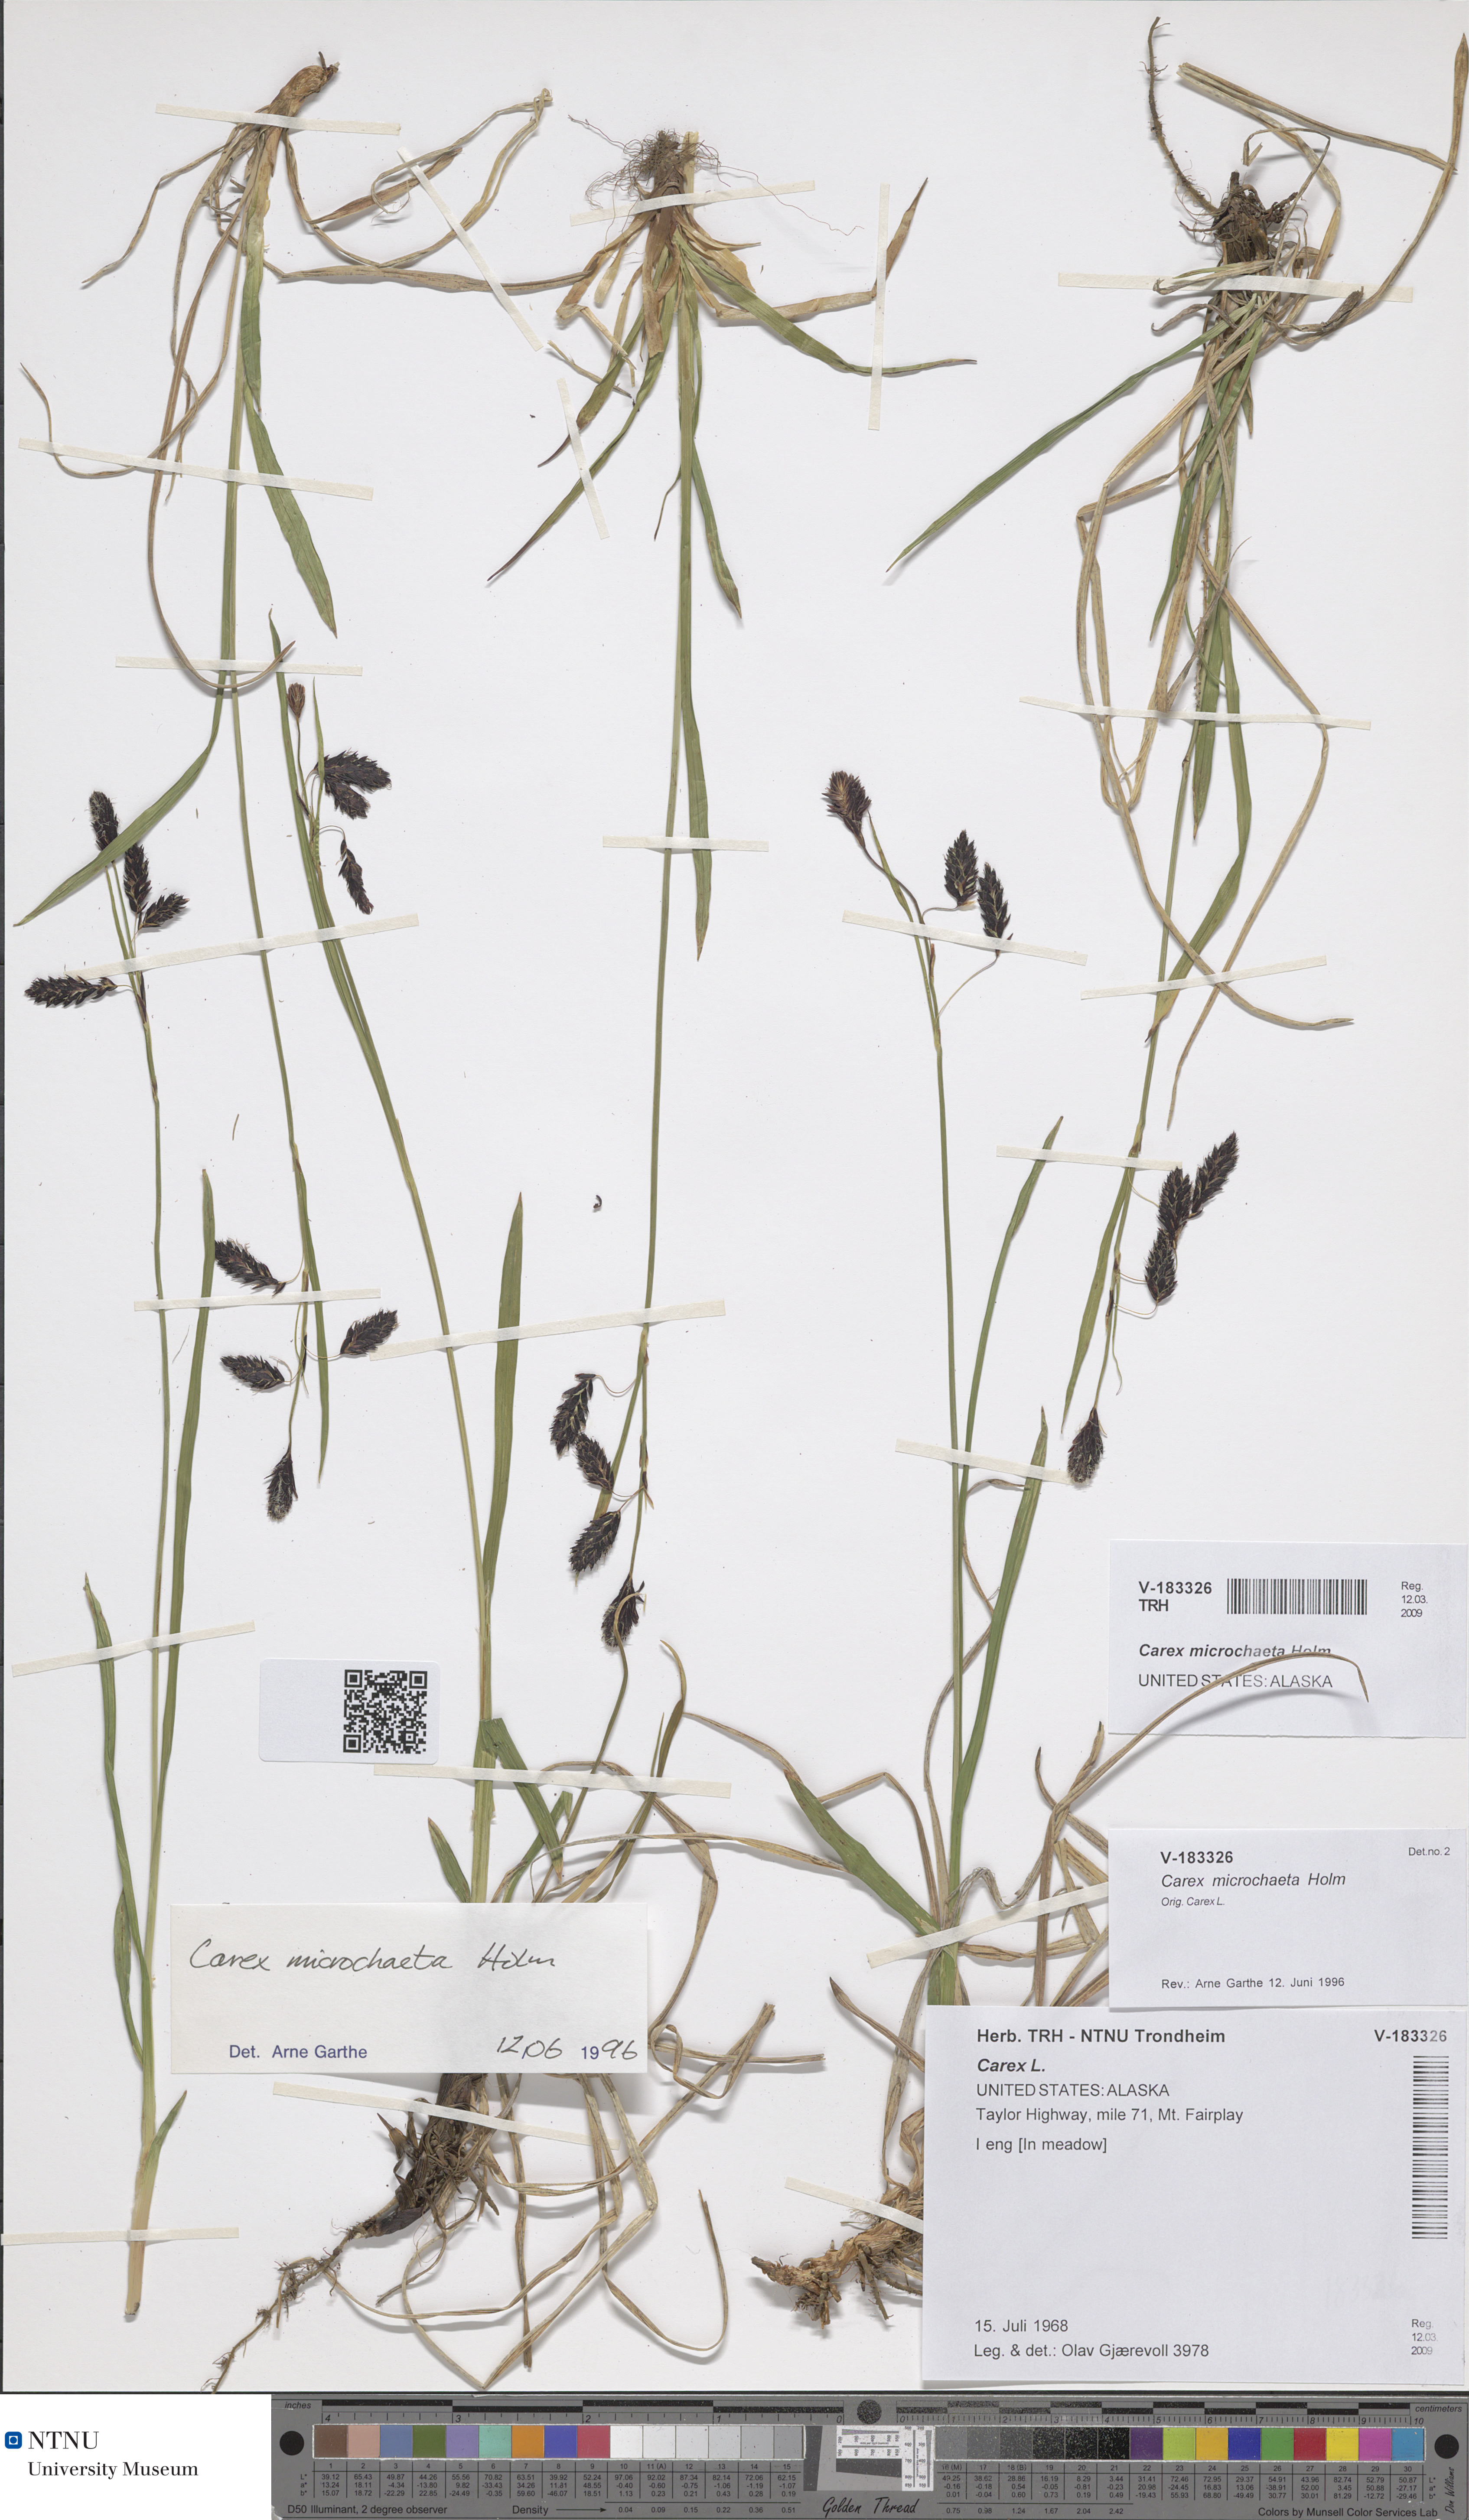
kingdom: Plantae
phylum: Tracheophyta
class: Liliopsida
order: Poales
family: Cyperaceae
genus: Carex
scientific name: Carex microchaeta
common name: Bering sea sedge
